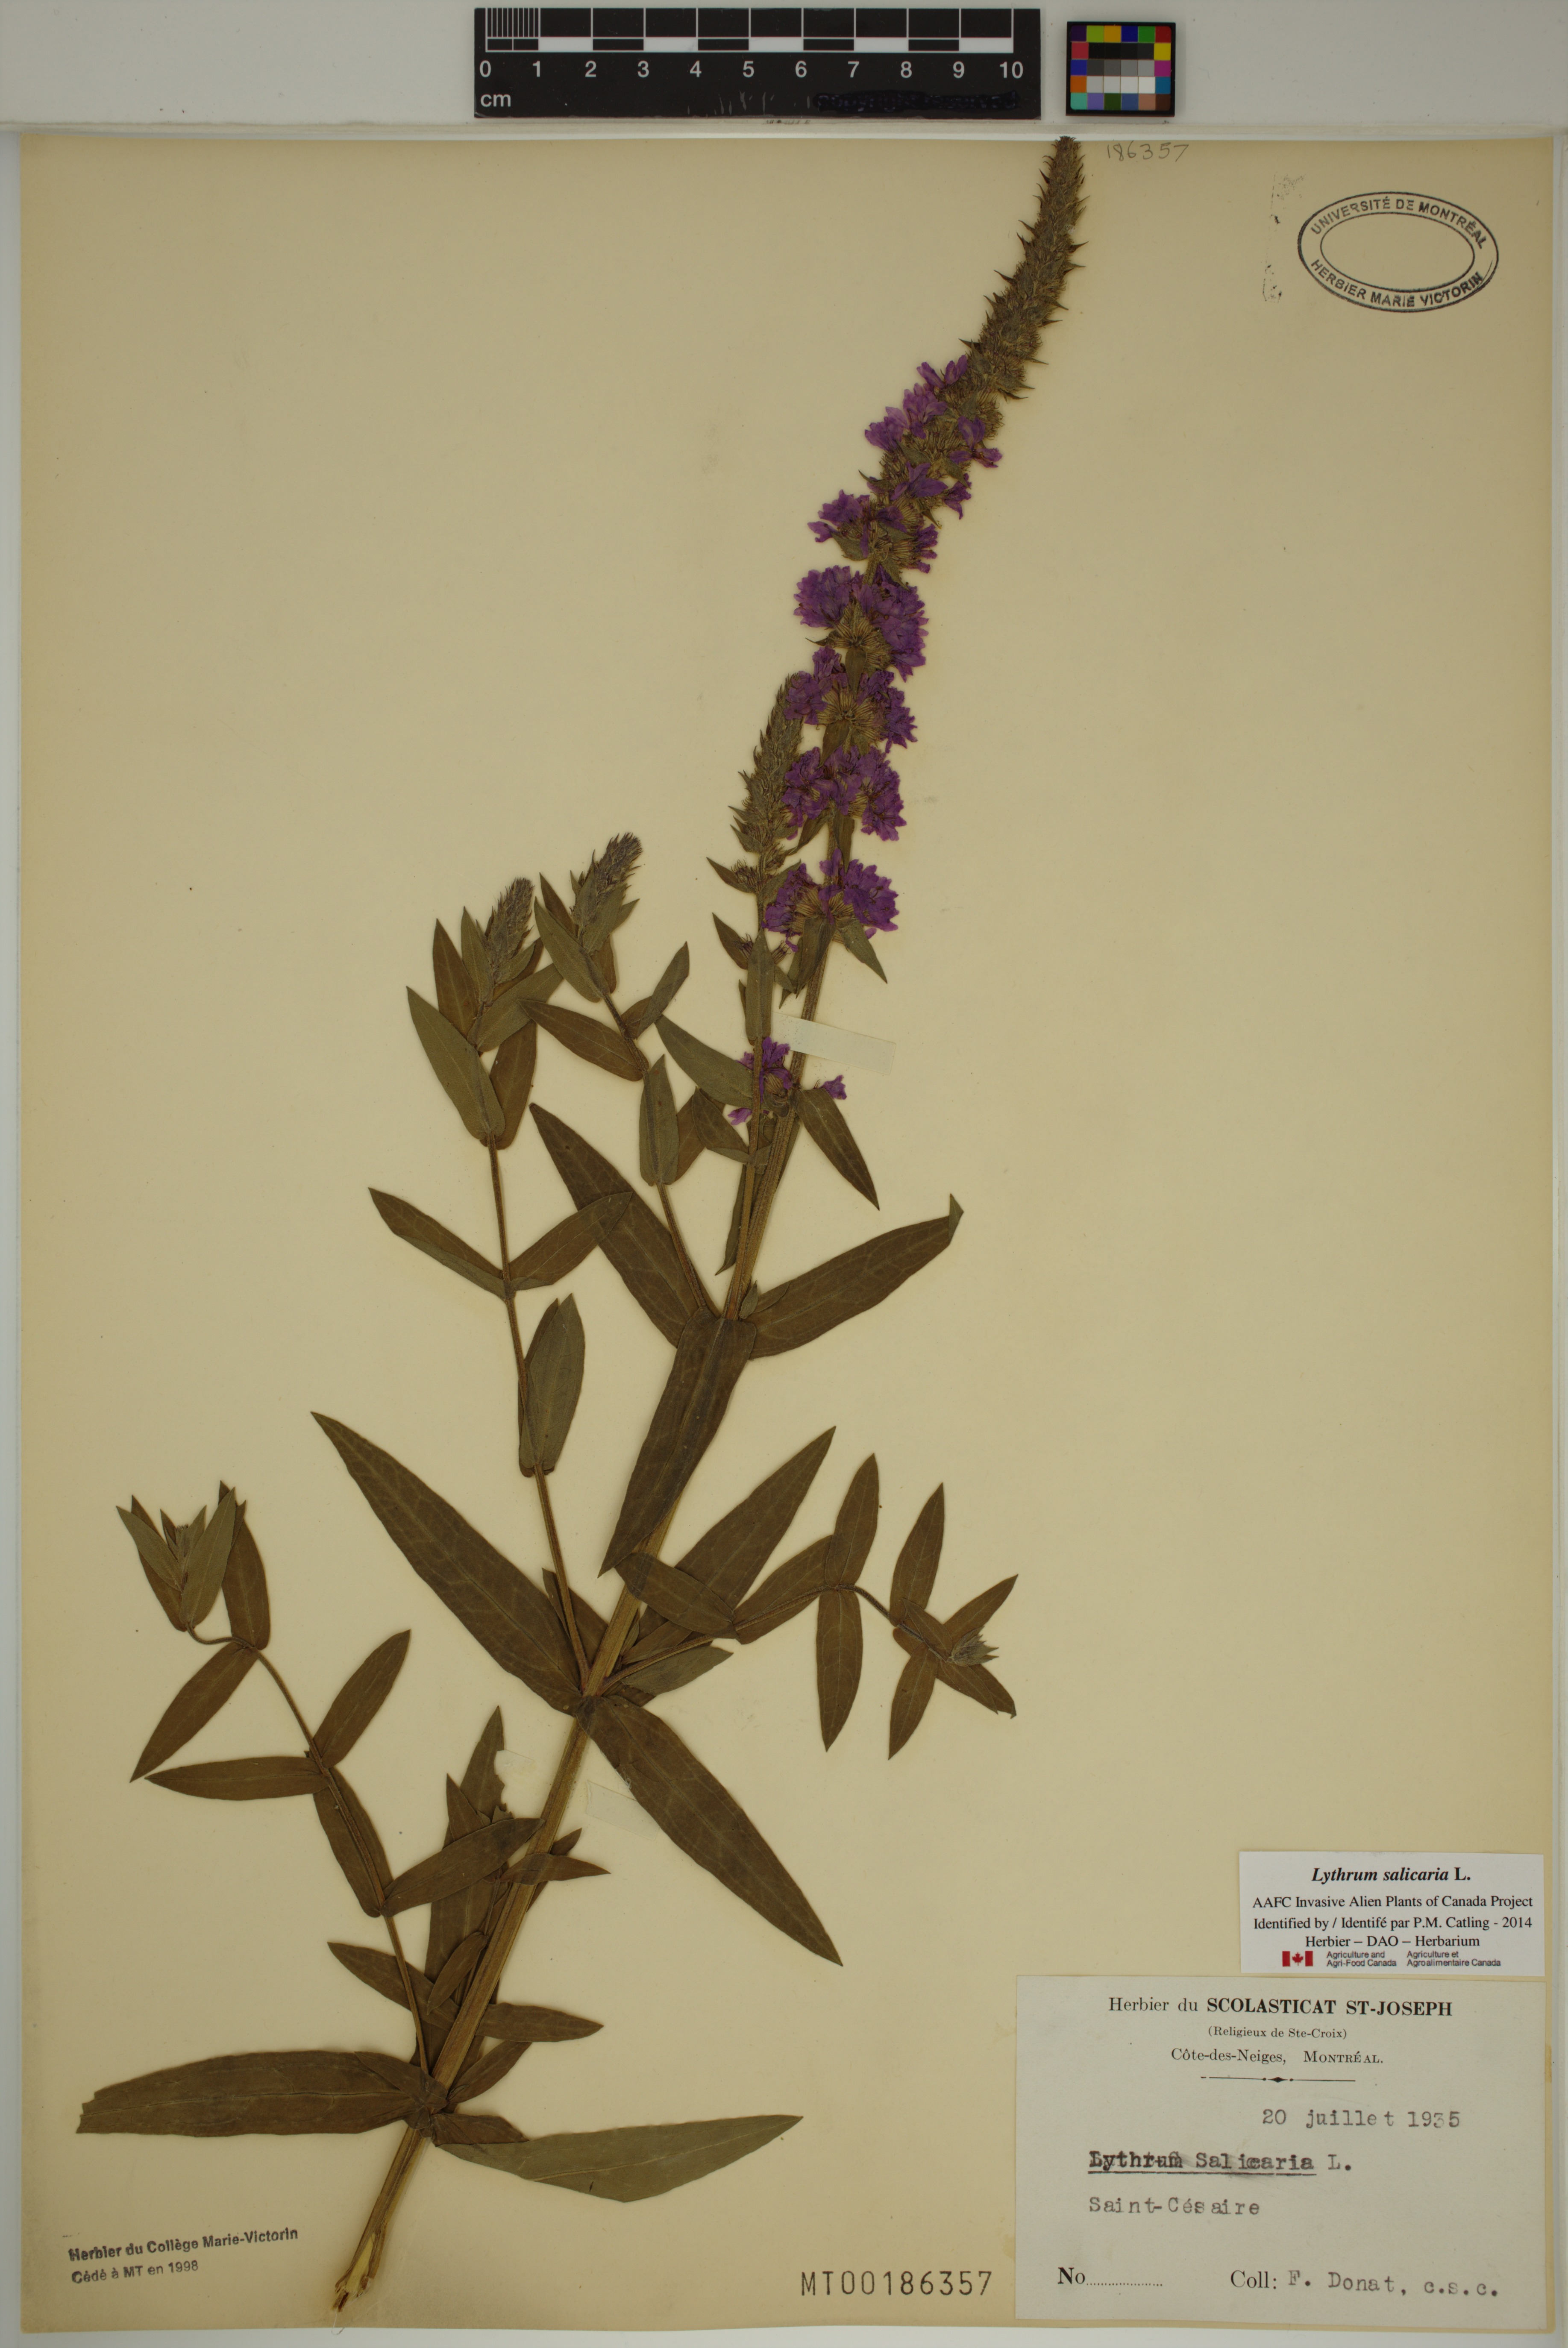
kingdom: Plantae
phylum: Tracheophyta
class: Magnoliopsida
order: Myrtales
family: Lythraceae
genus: Lythrum
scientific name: Lythrum salicaria
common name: Purple loosestrife
